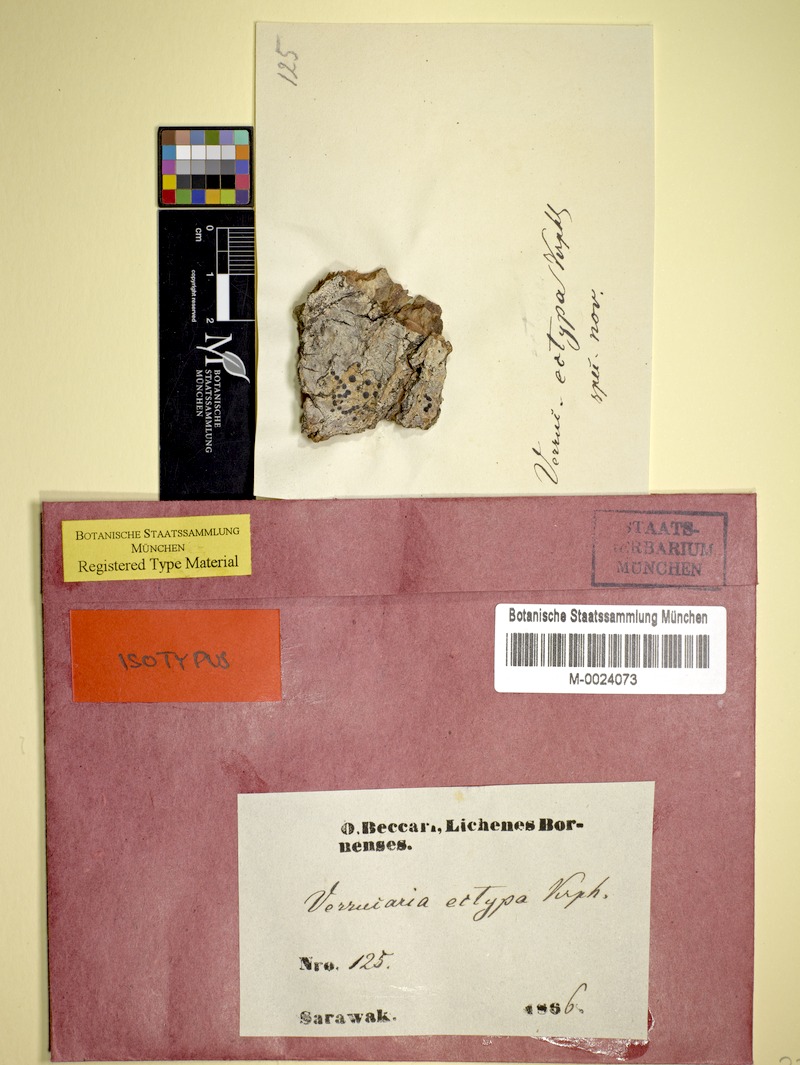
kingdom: Fungi
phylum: Ascomycota
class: Eurotiomycetes
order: Pyrenulales
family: Pyrenulaceae
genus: Pyrenula
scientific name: Pyrenula
